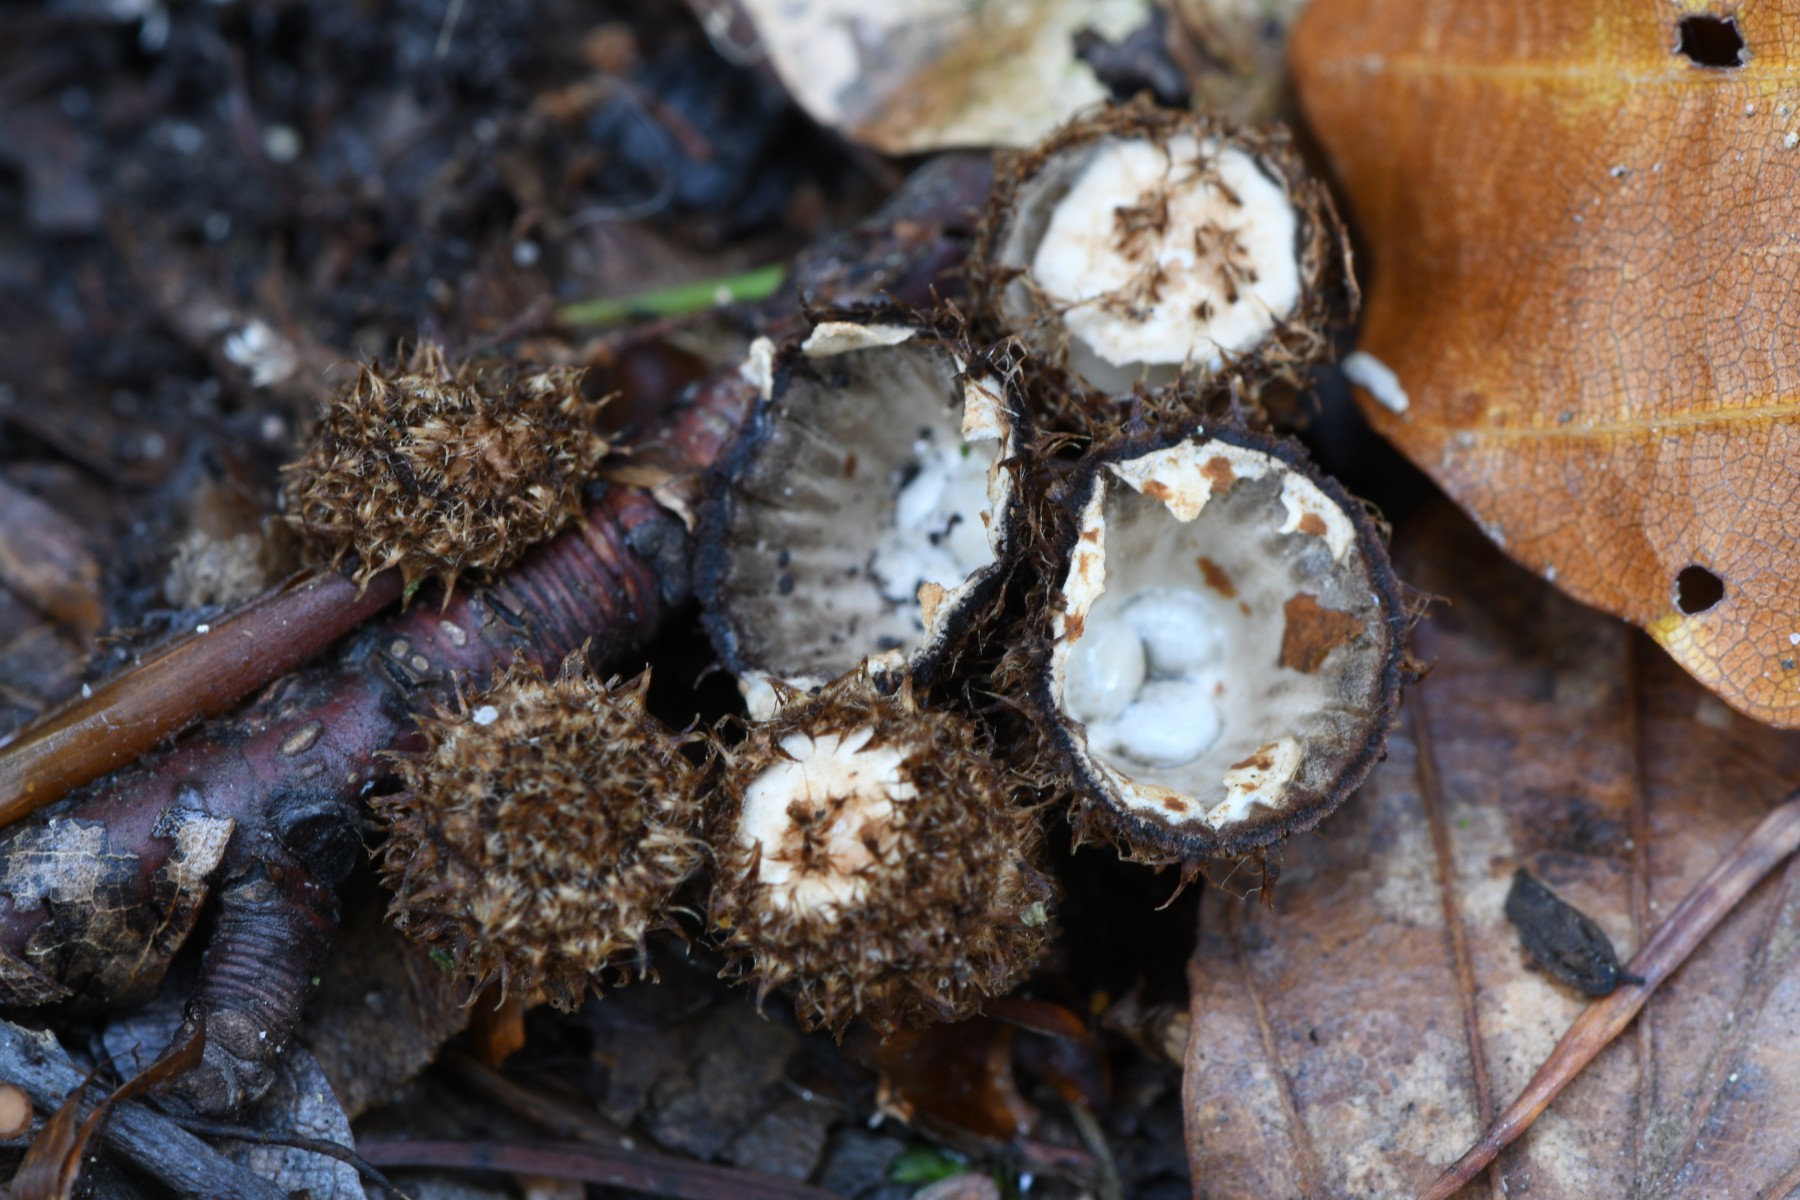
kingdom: Fungi
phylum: Basidiomycota
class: Agaricomycetes
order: Agaricales
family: Agaricaceae
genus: Cyathus
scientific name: Cyathus striatus
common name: stribet redesvamp
